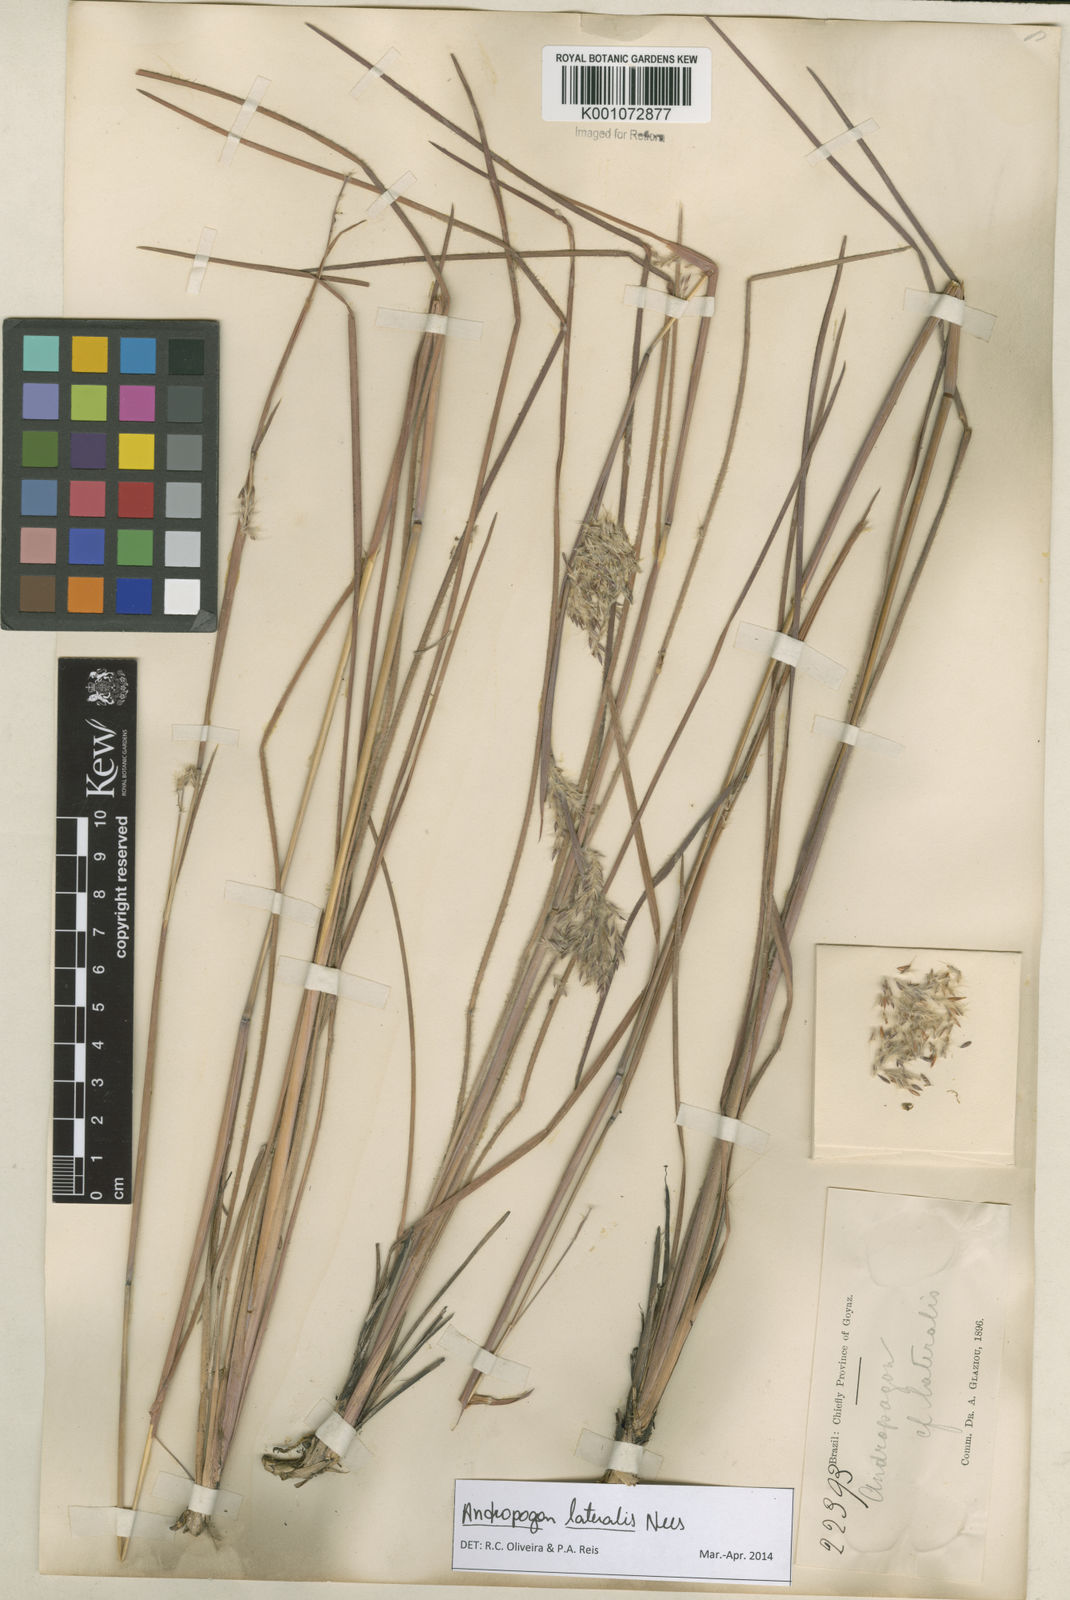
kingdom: Plantae
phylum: Tracheophyta
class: Liliopsida
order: Poales
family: Poaceae
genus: Andropogon
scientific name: Andropogon lateralis
